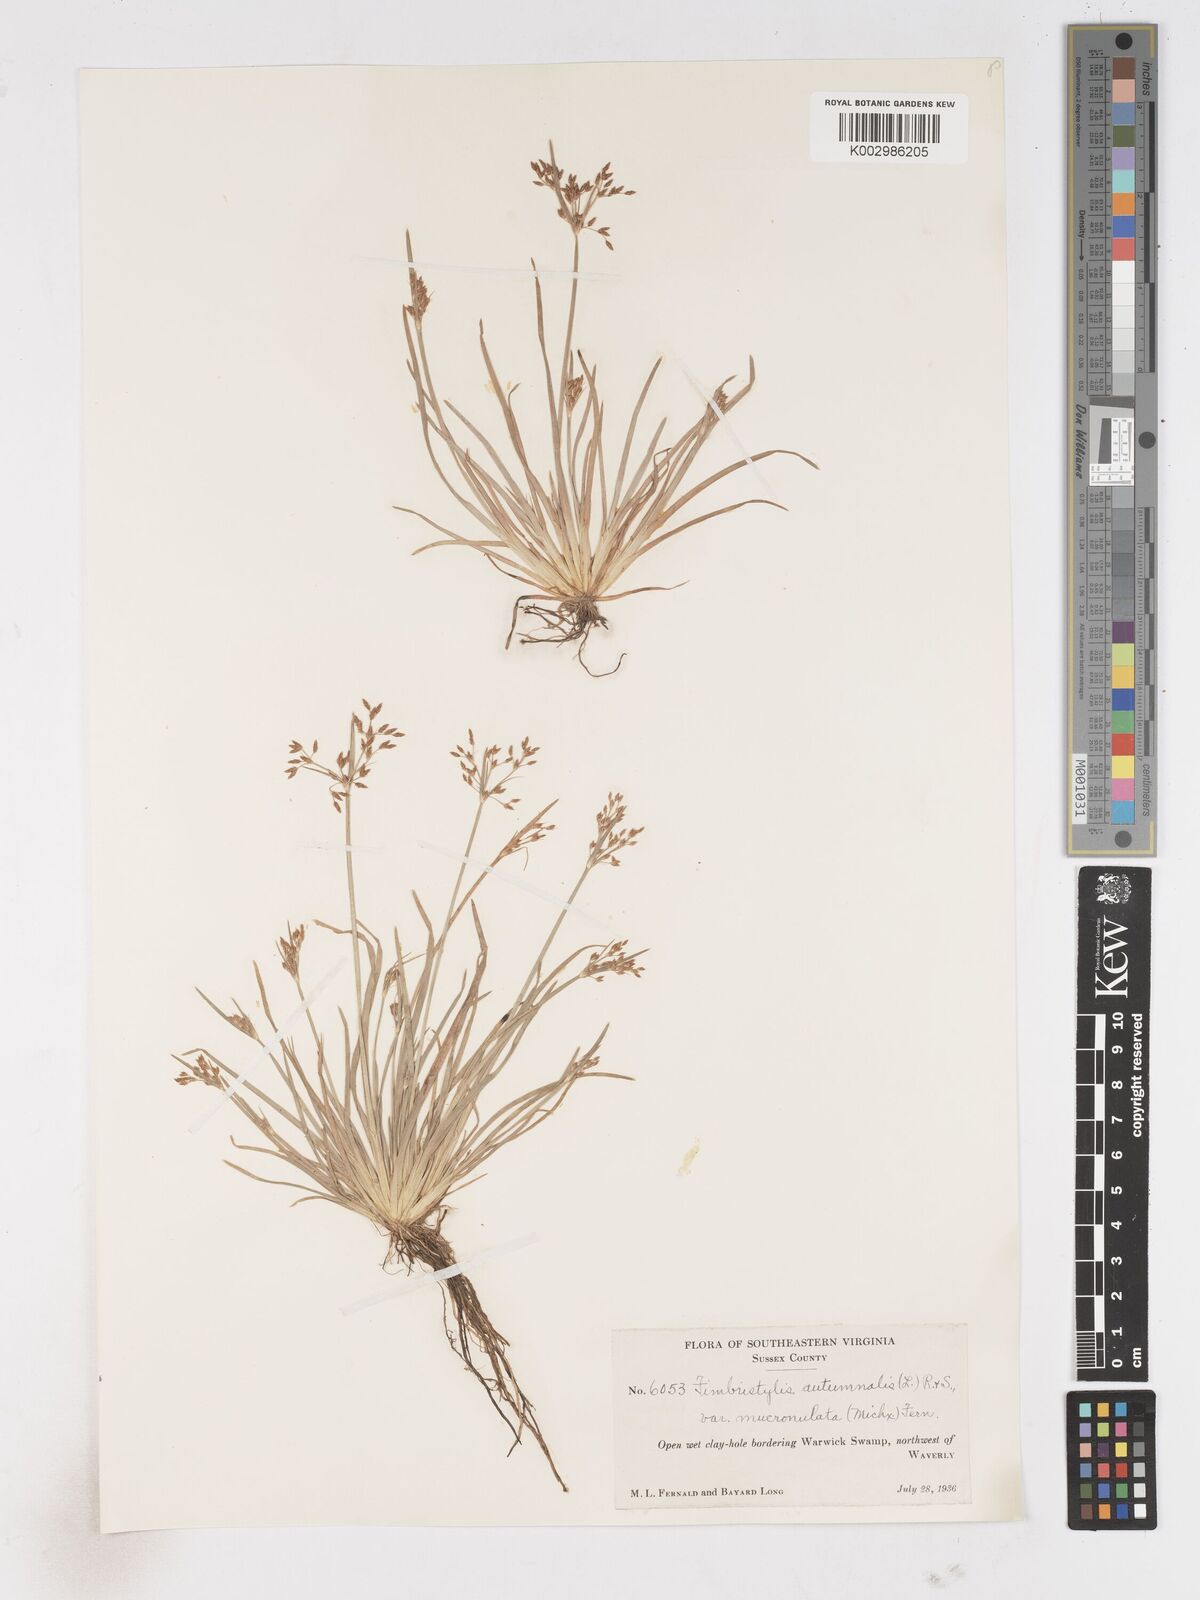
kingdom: Plantae
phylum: Tracheophyta
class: Liliopsida
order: Poales
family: Cyperaceae
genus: Fimbristylis
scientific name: Fimbristylis autumnalis
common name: Slender fimbristylis
